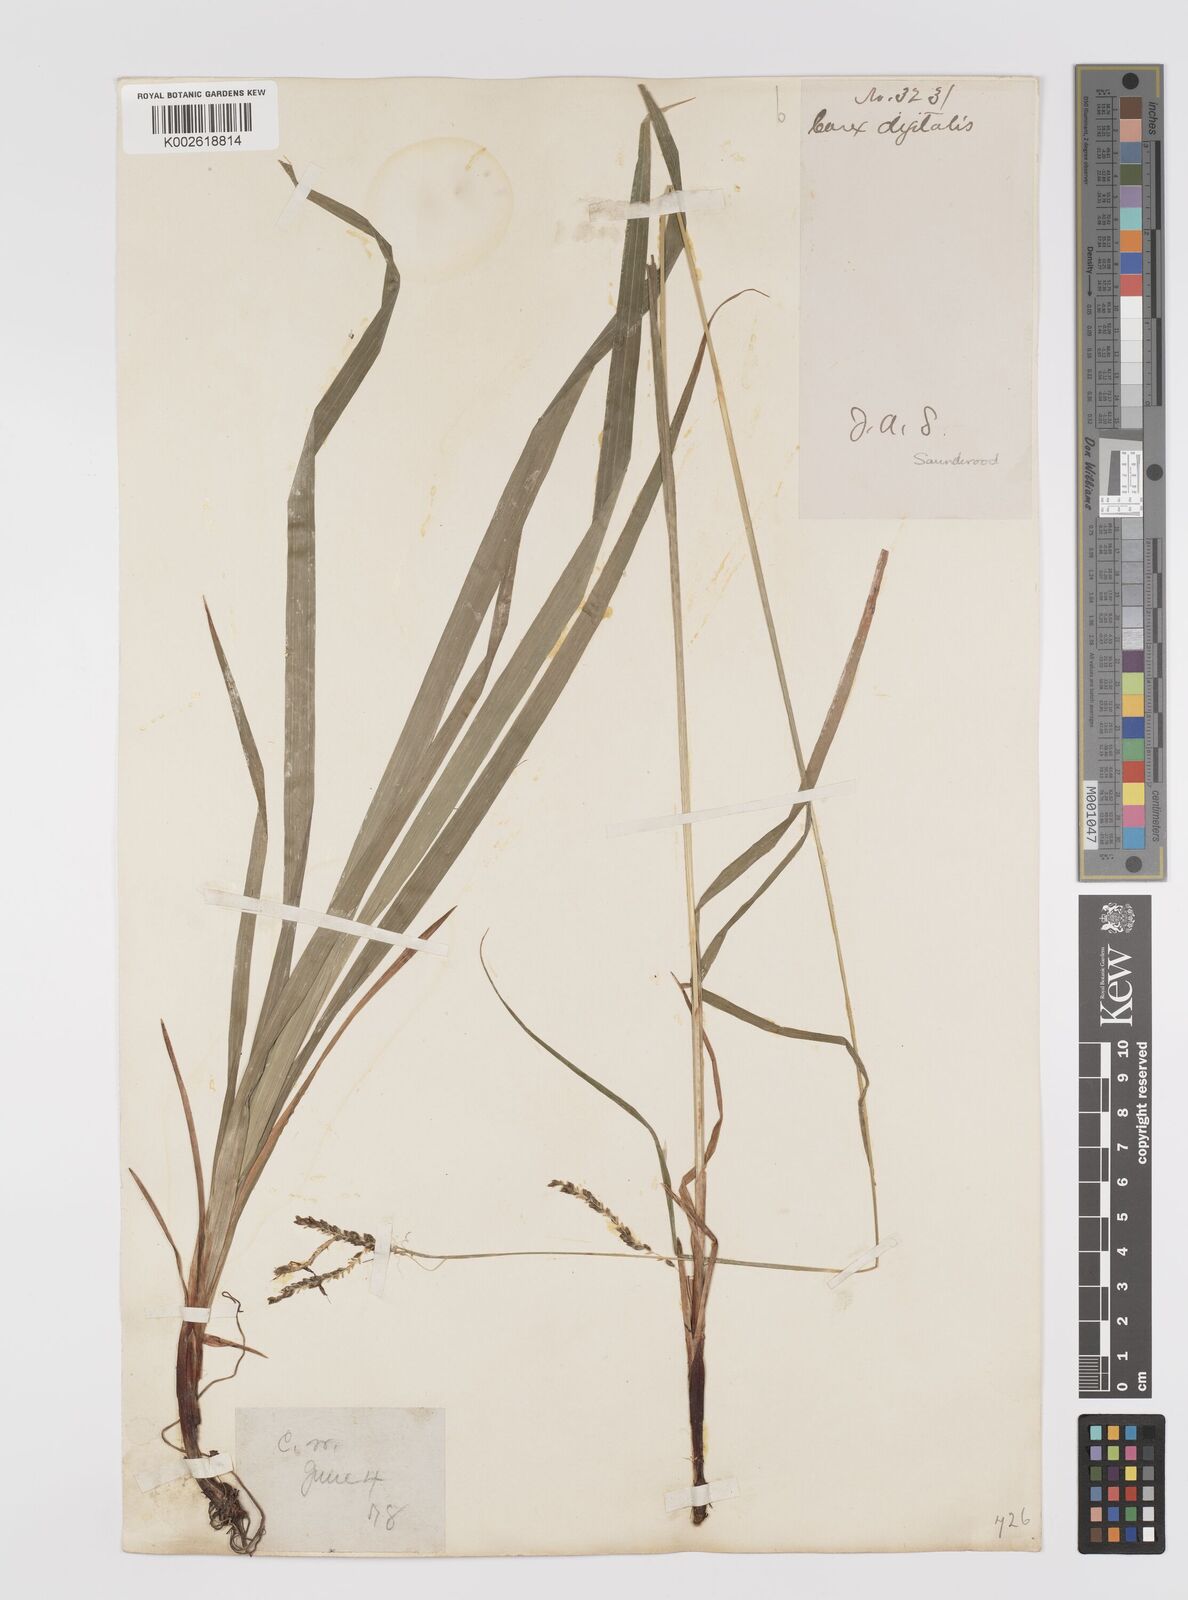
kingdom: Plantae
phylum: Tracheophyta
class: Liliopsida
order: Poales
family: Cyperaceae
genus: Carex
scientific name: Carex digitalis
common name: Slender wood sedge
